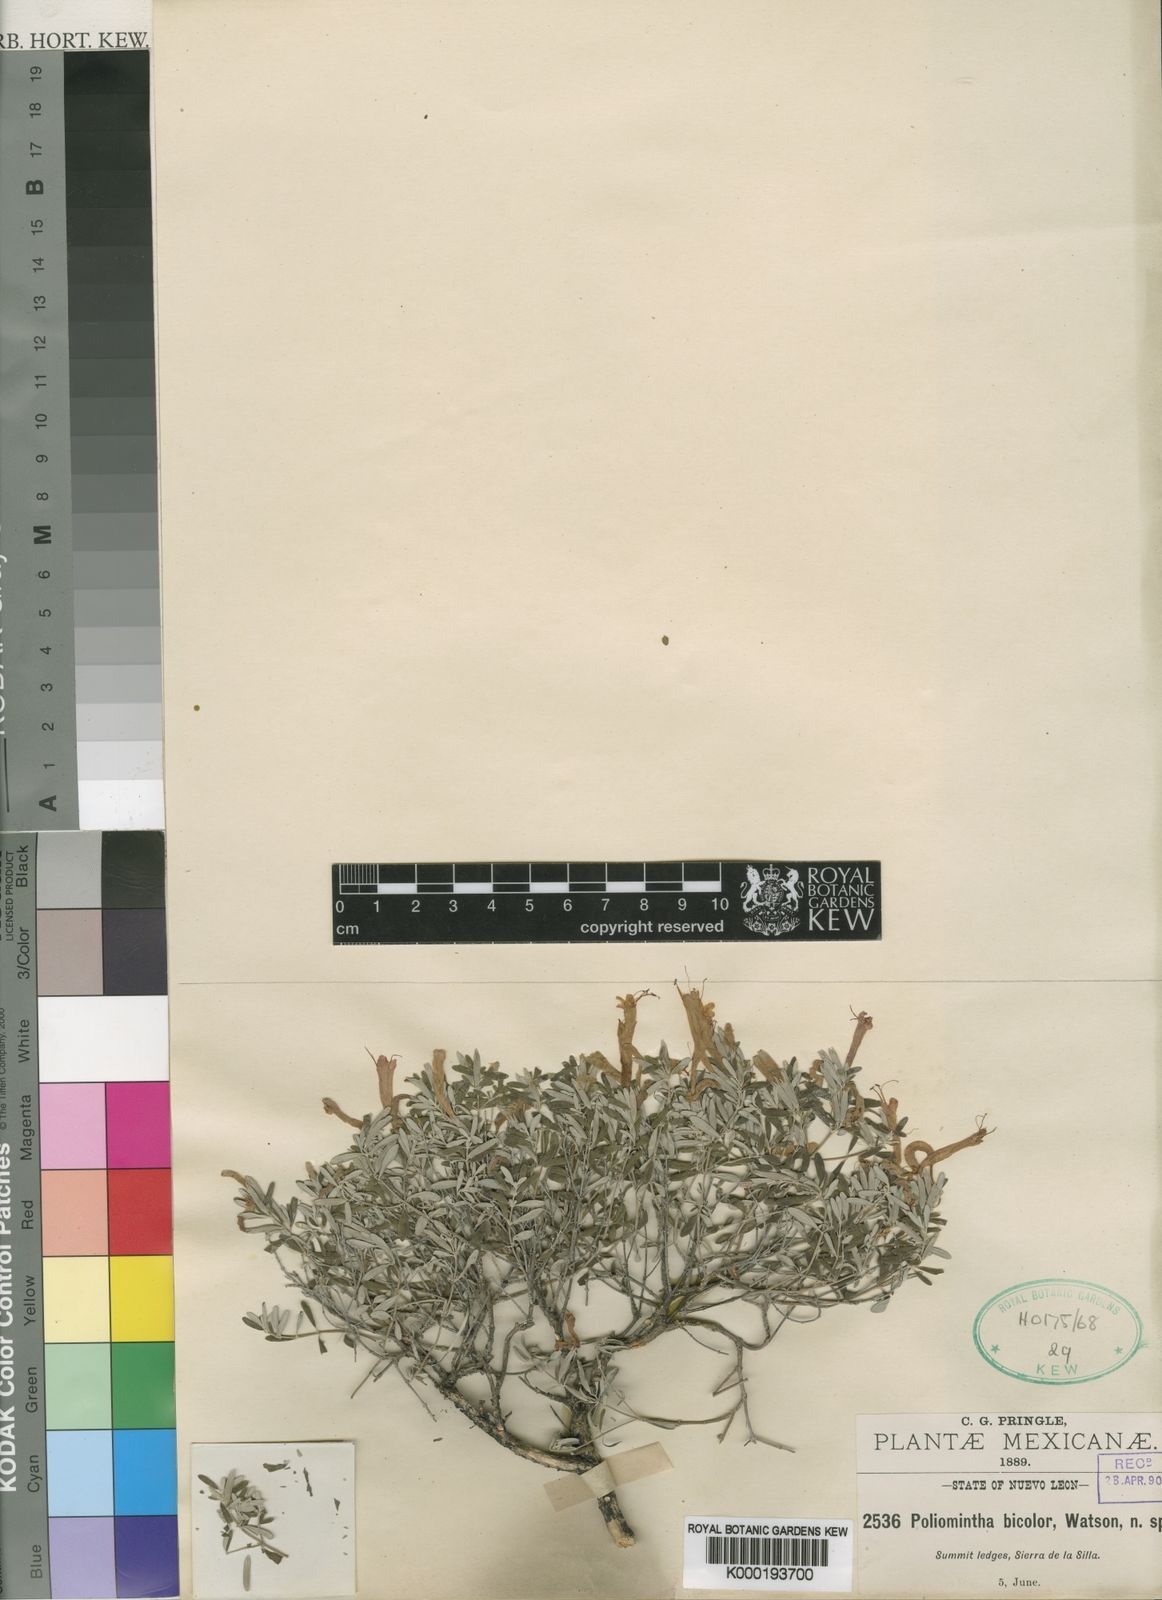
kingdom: Plantae
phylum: Tracheophyta
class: Magnoliopsida
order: Lamiales
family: Lamiaceae
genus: Poliomintha
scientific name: Poliomintha longiflora
